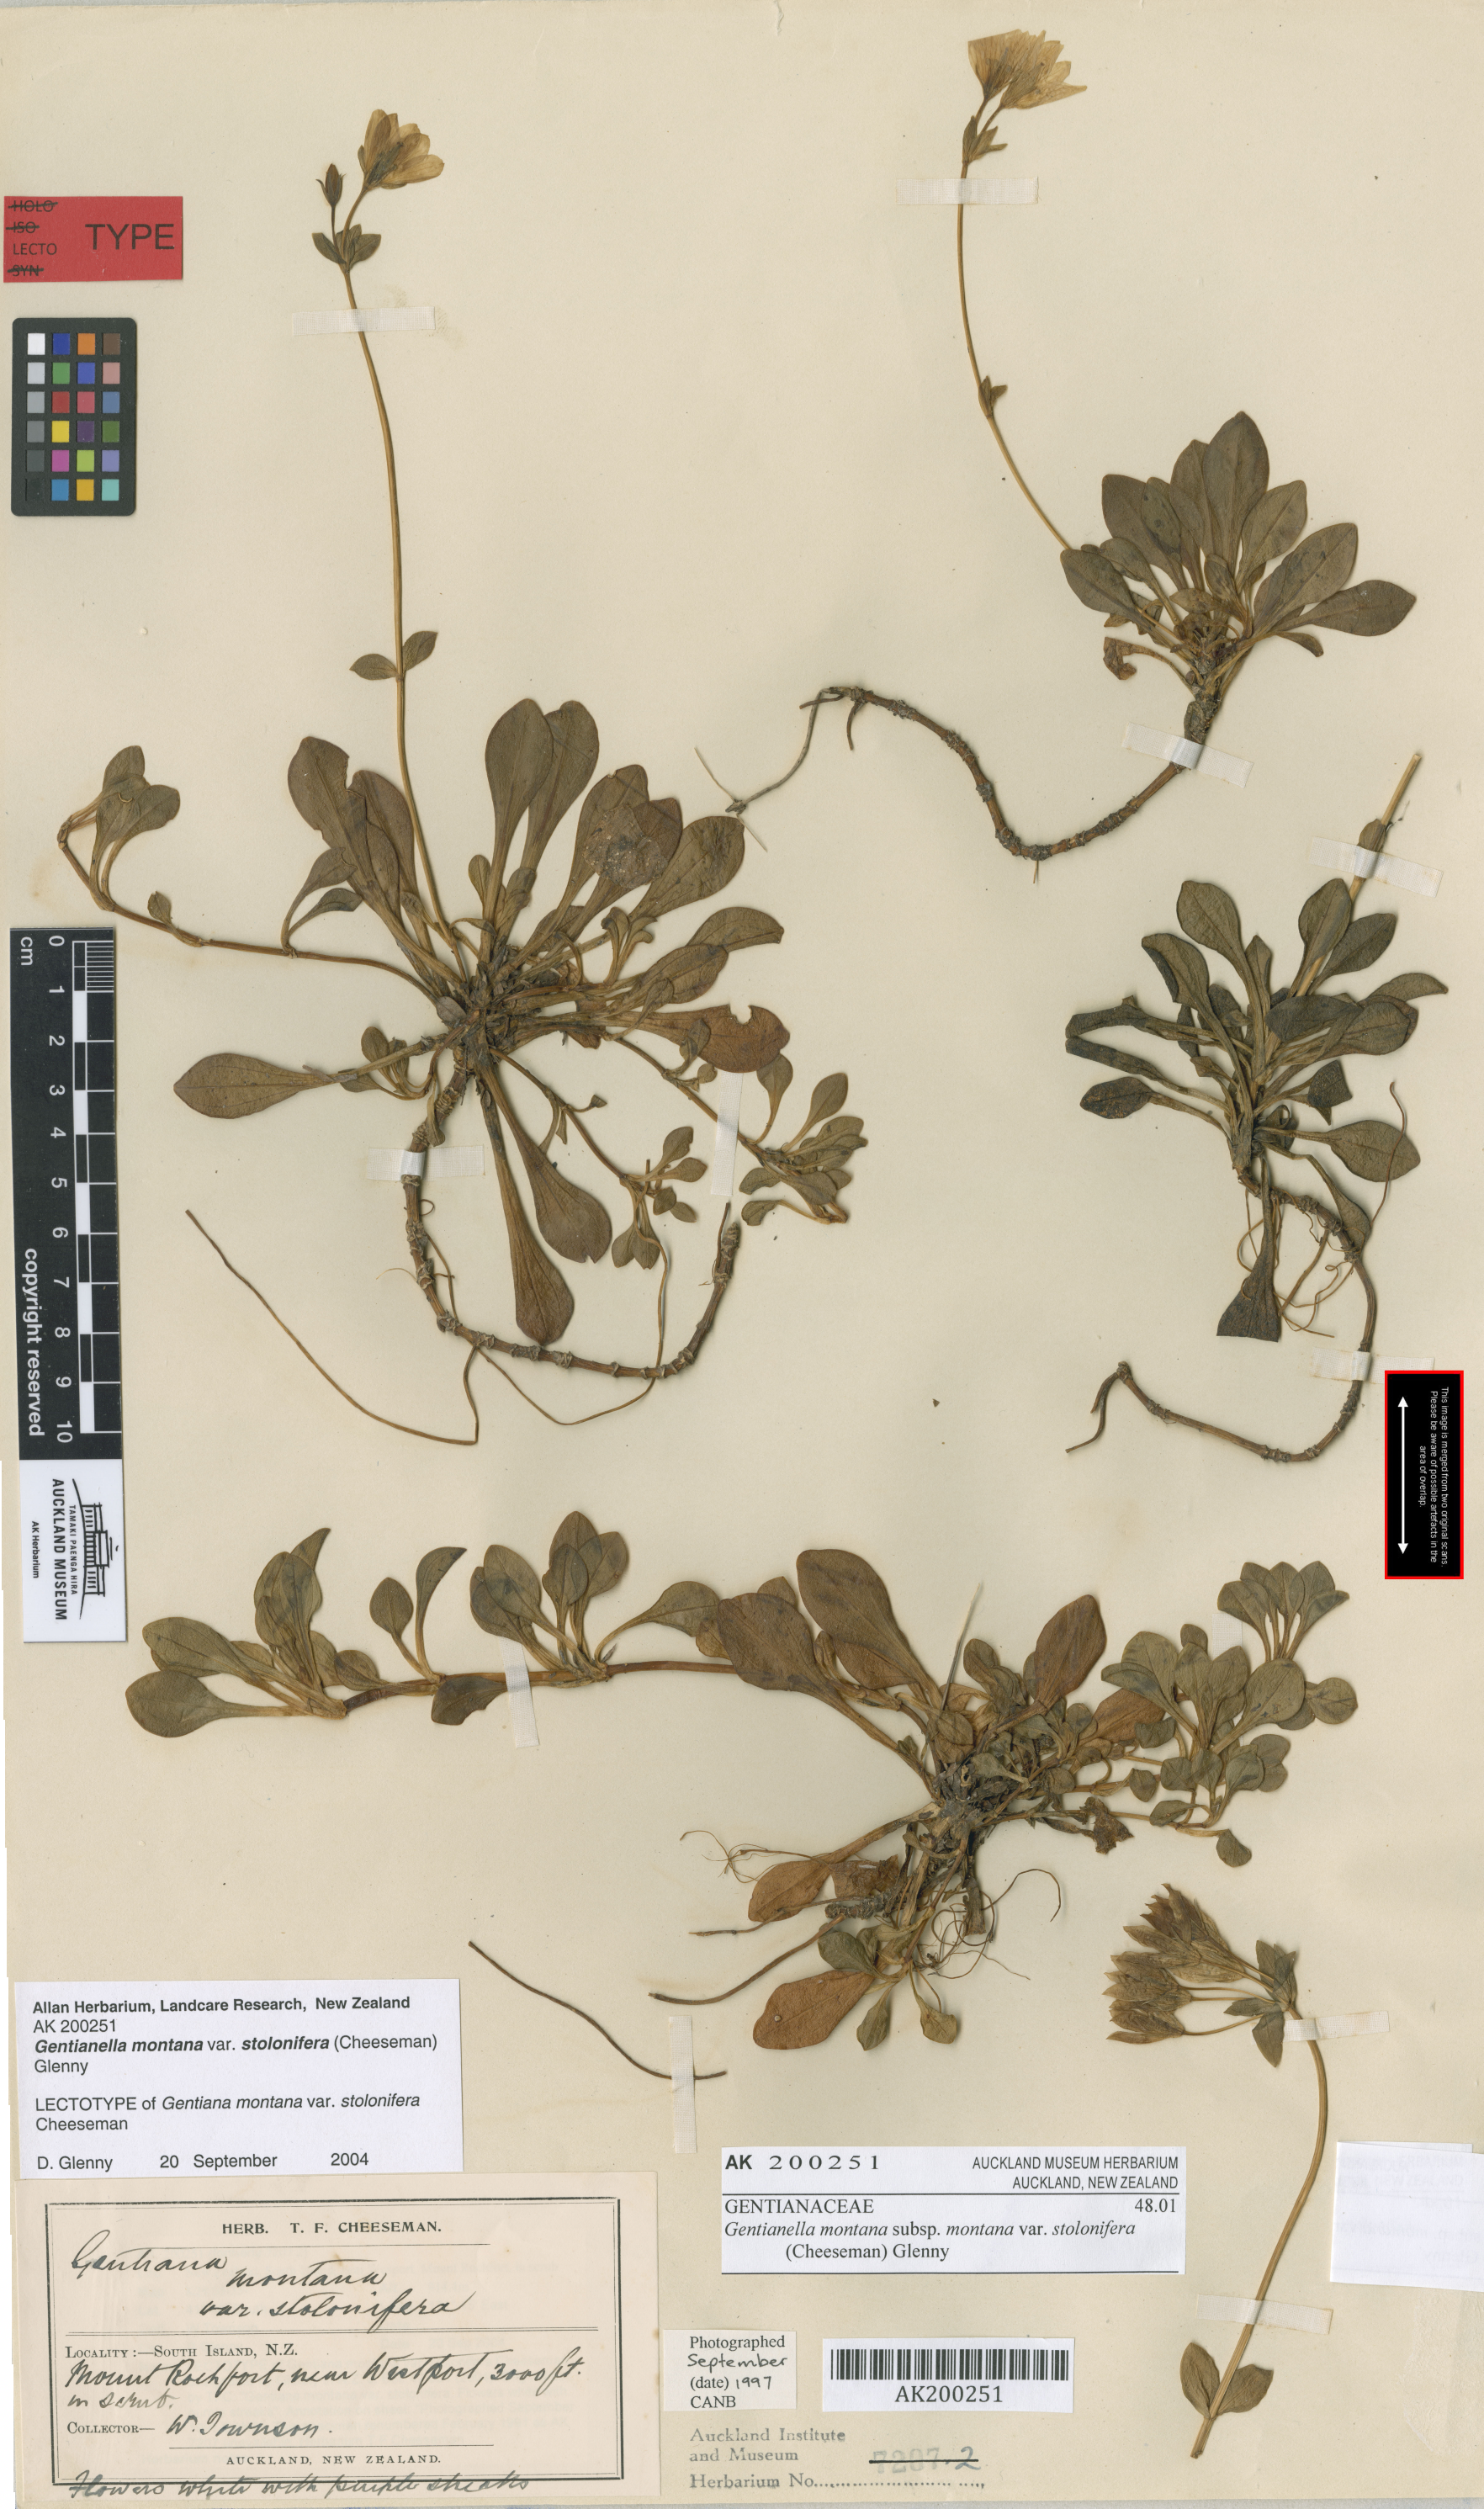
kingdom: Plantae
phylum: Tracheophyta
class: Magnoliopsida
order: Gentianales
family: Gentianaceae
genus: Gentianella
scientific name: Gentianella montana
